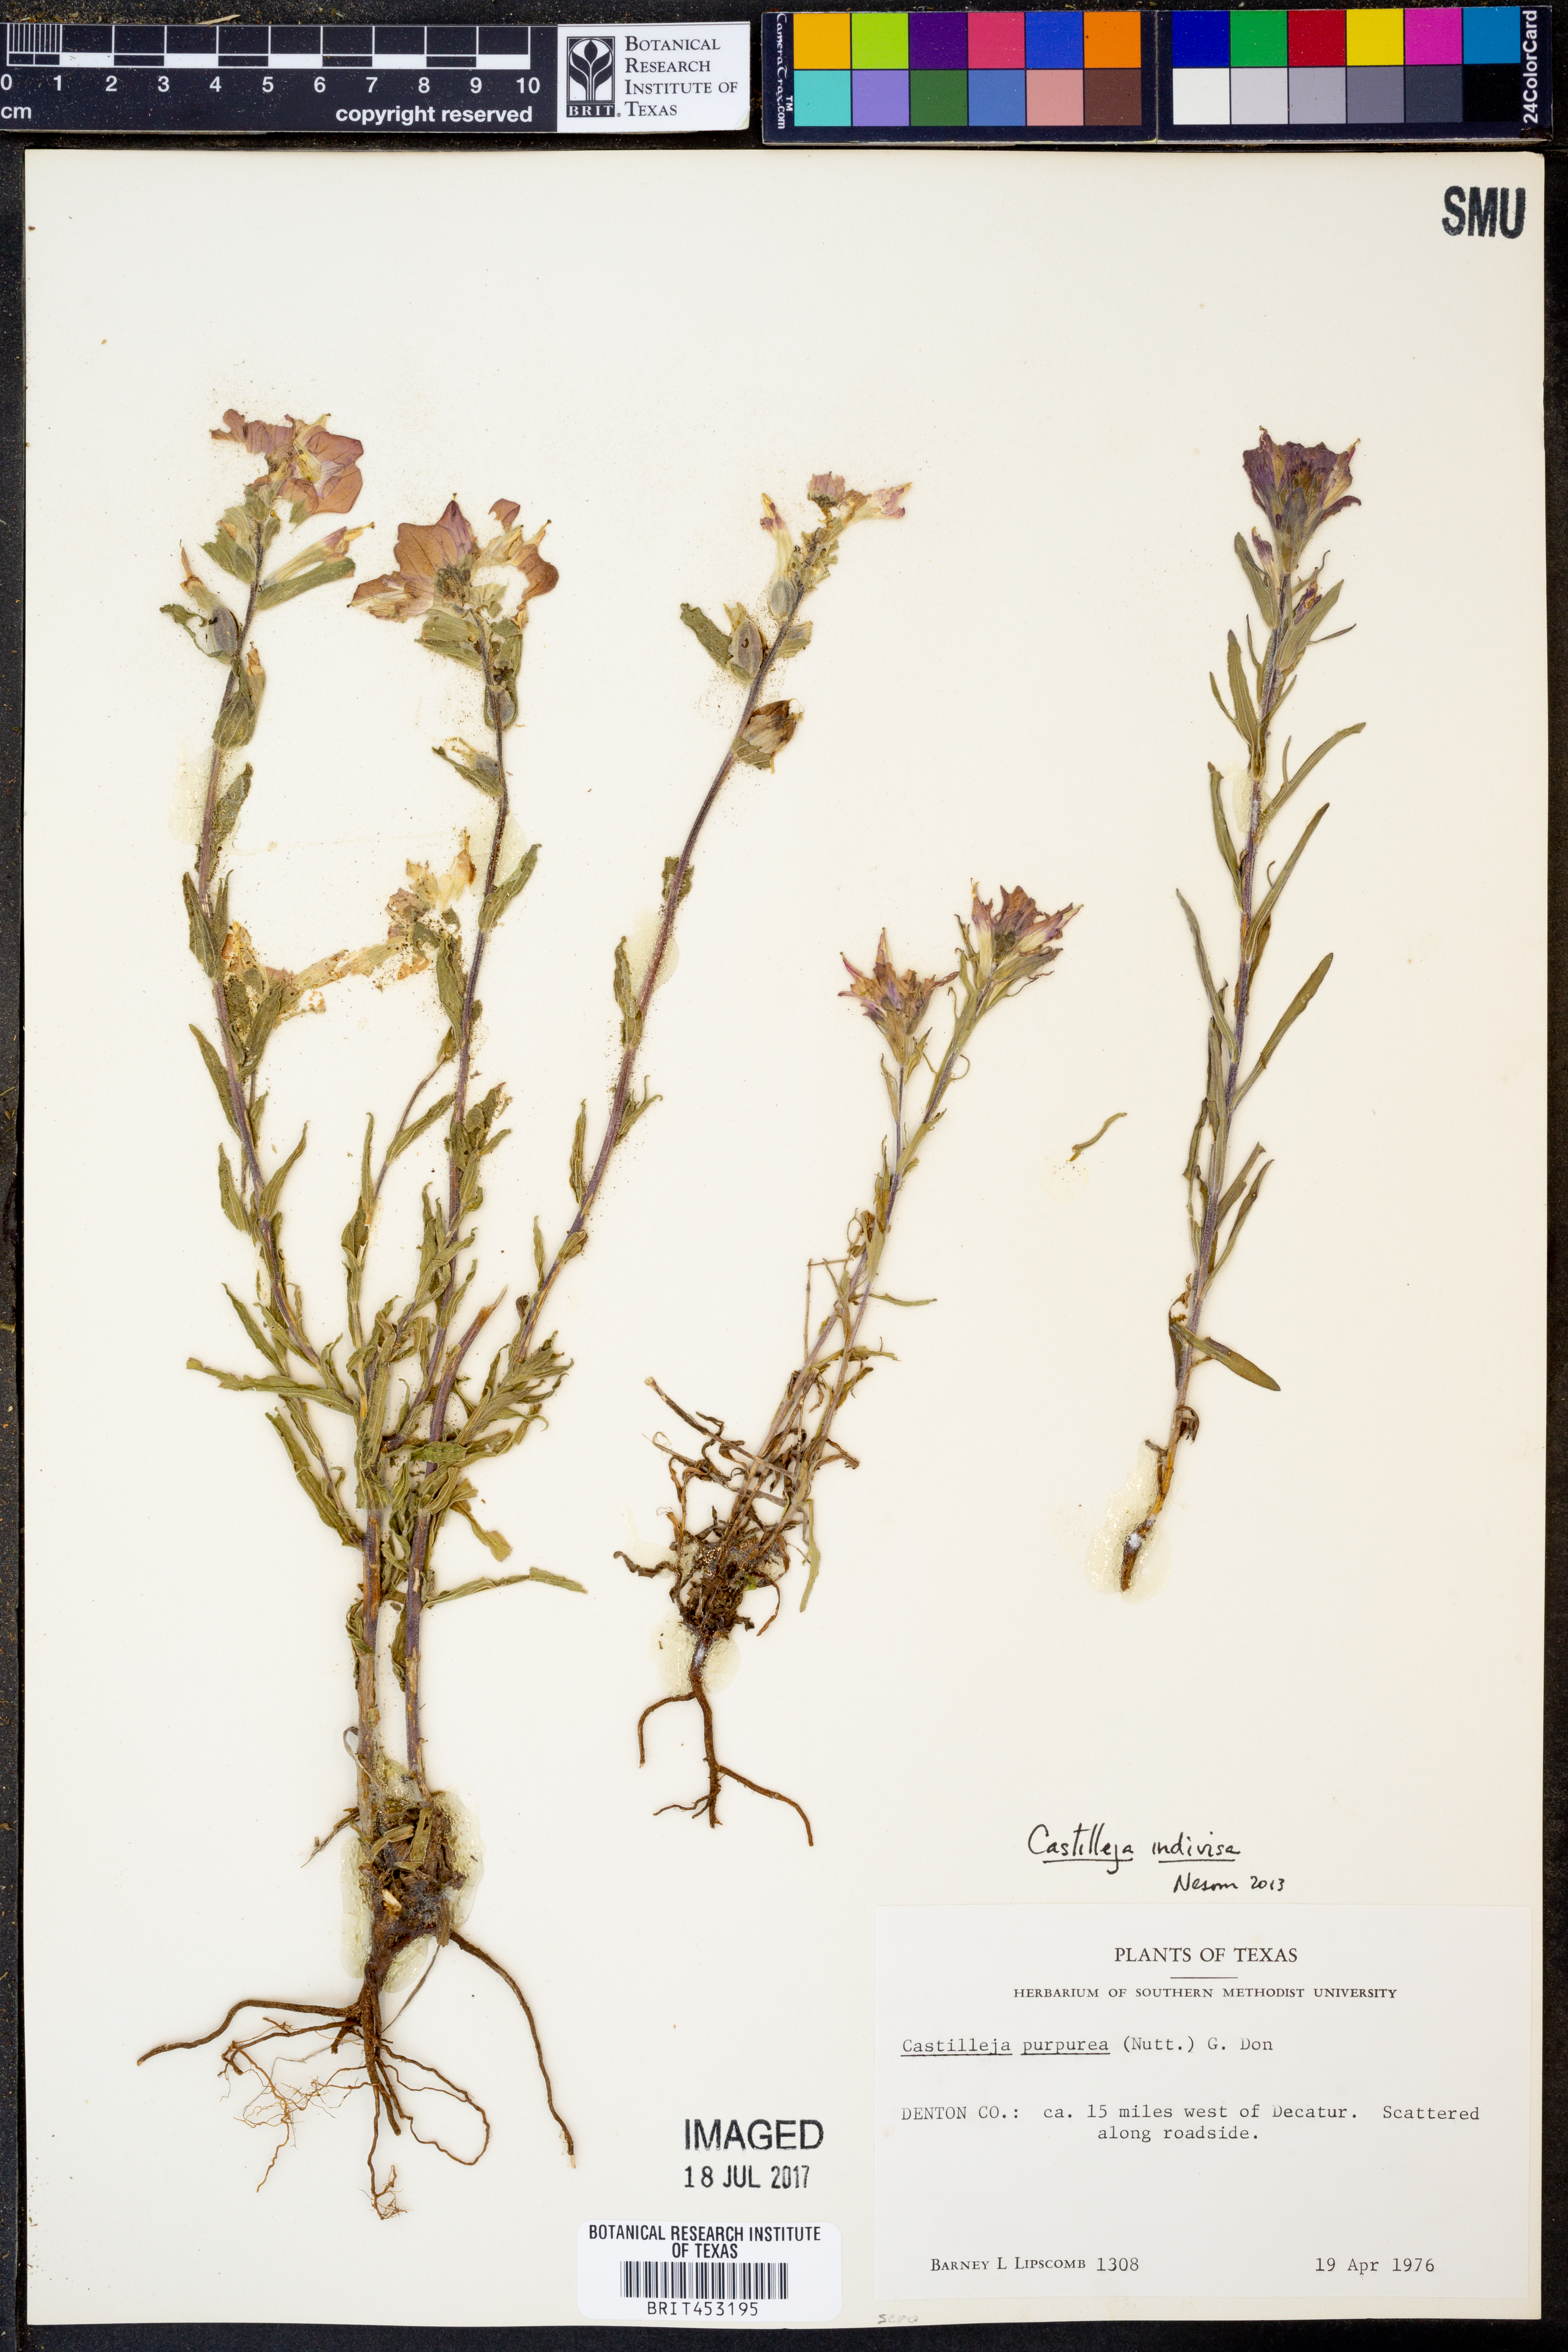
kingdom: Plantae
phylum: Tracheophyta
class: Magnoliopsida
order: Lamiales
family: Orobanchaceae
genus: Castilleja
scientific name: Castilleja indivisa
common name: Texas paintbrush
